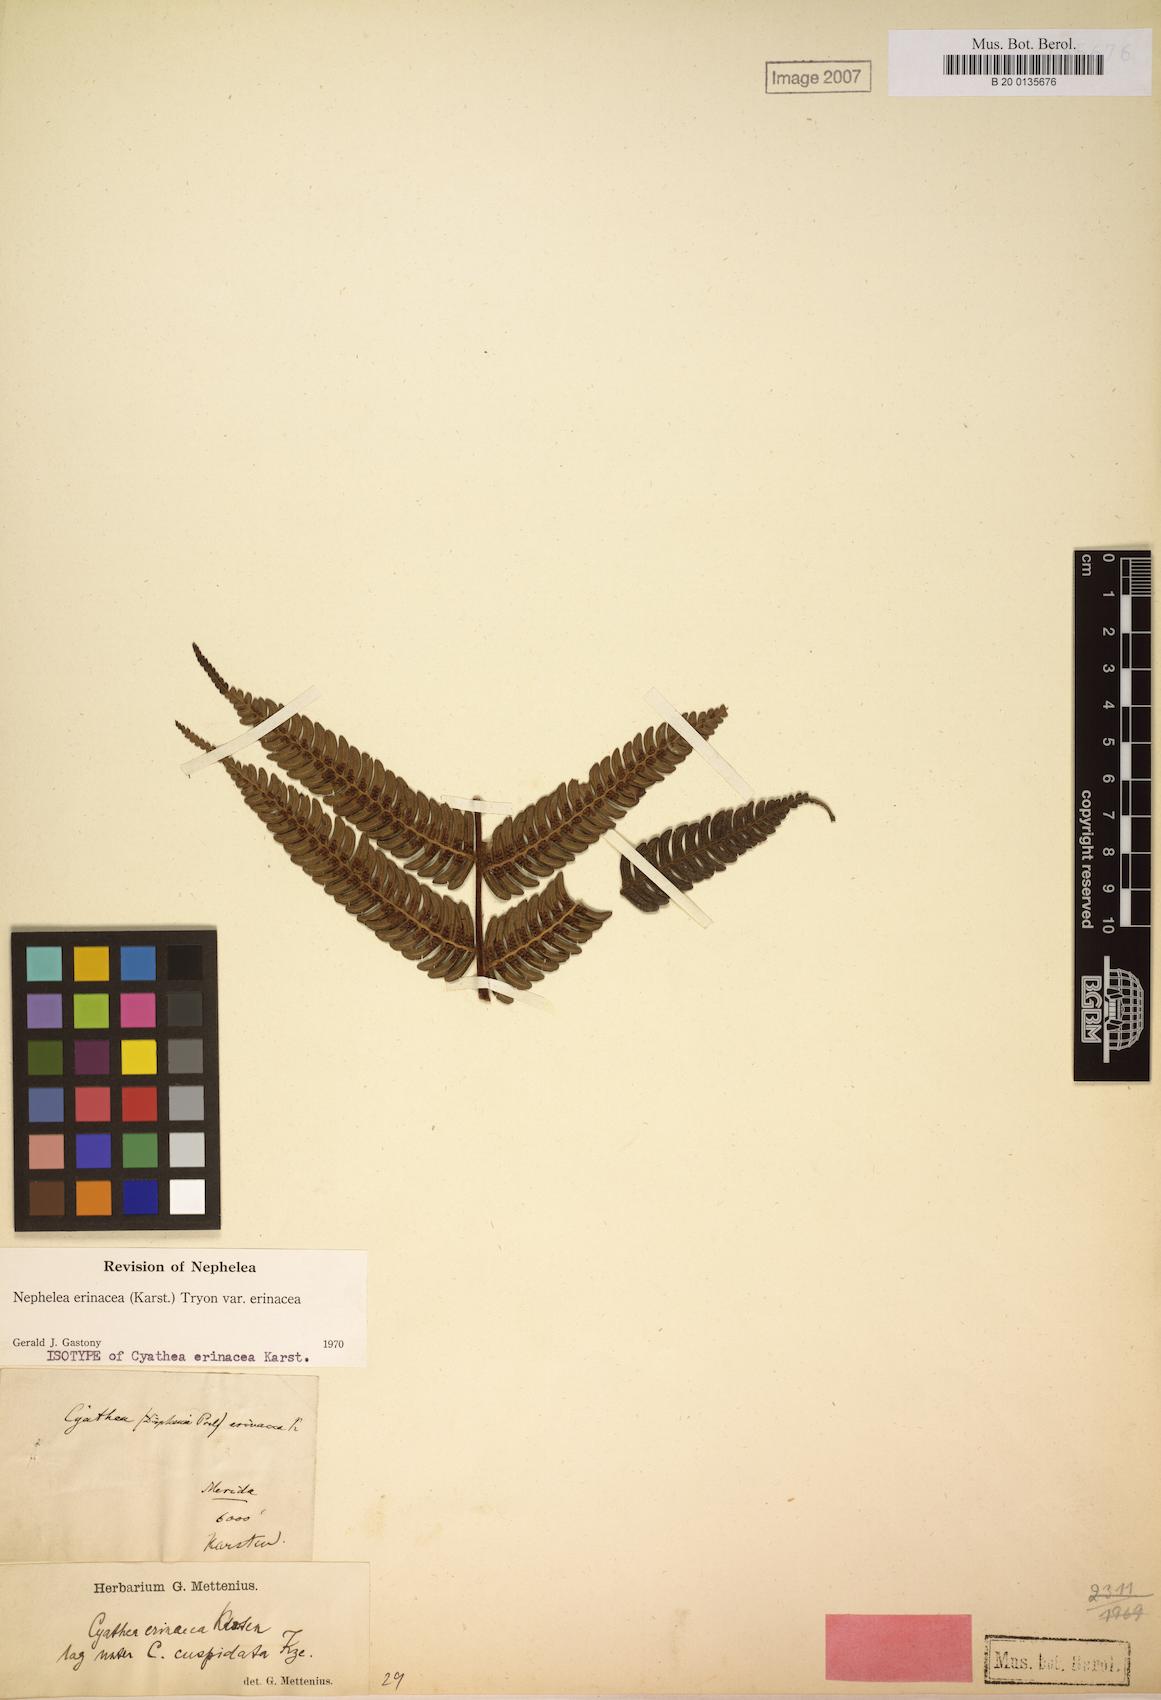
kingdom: Plantae
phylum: Tracheophyta
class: Polypodiopsida
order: Cyatheales
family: Cyatheaceae
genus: Alsophila
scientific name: Alsophila erinacea
